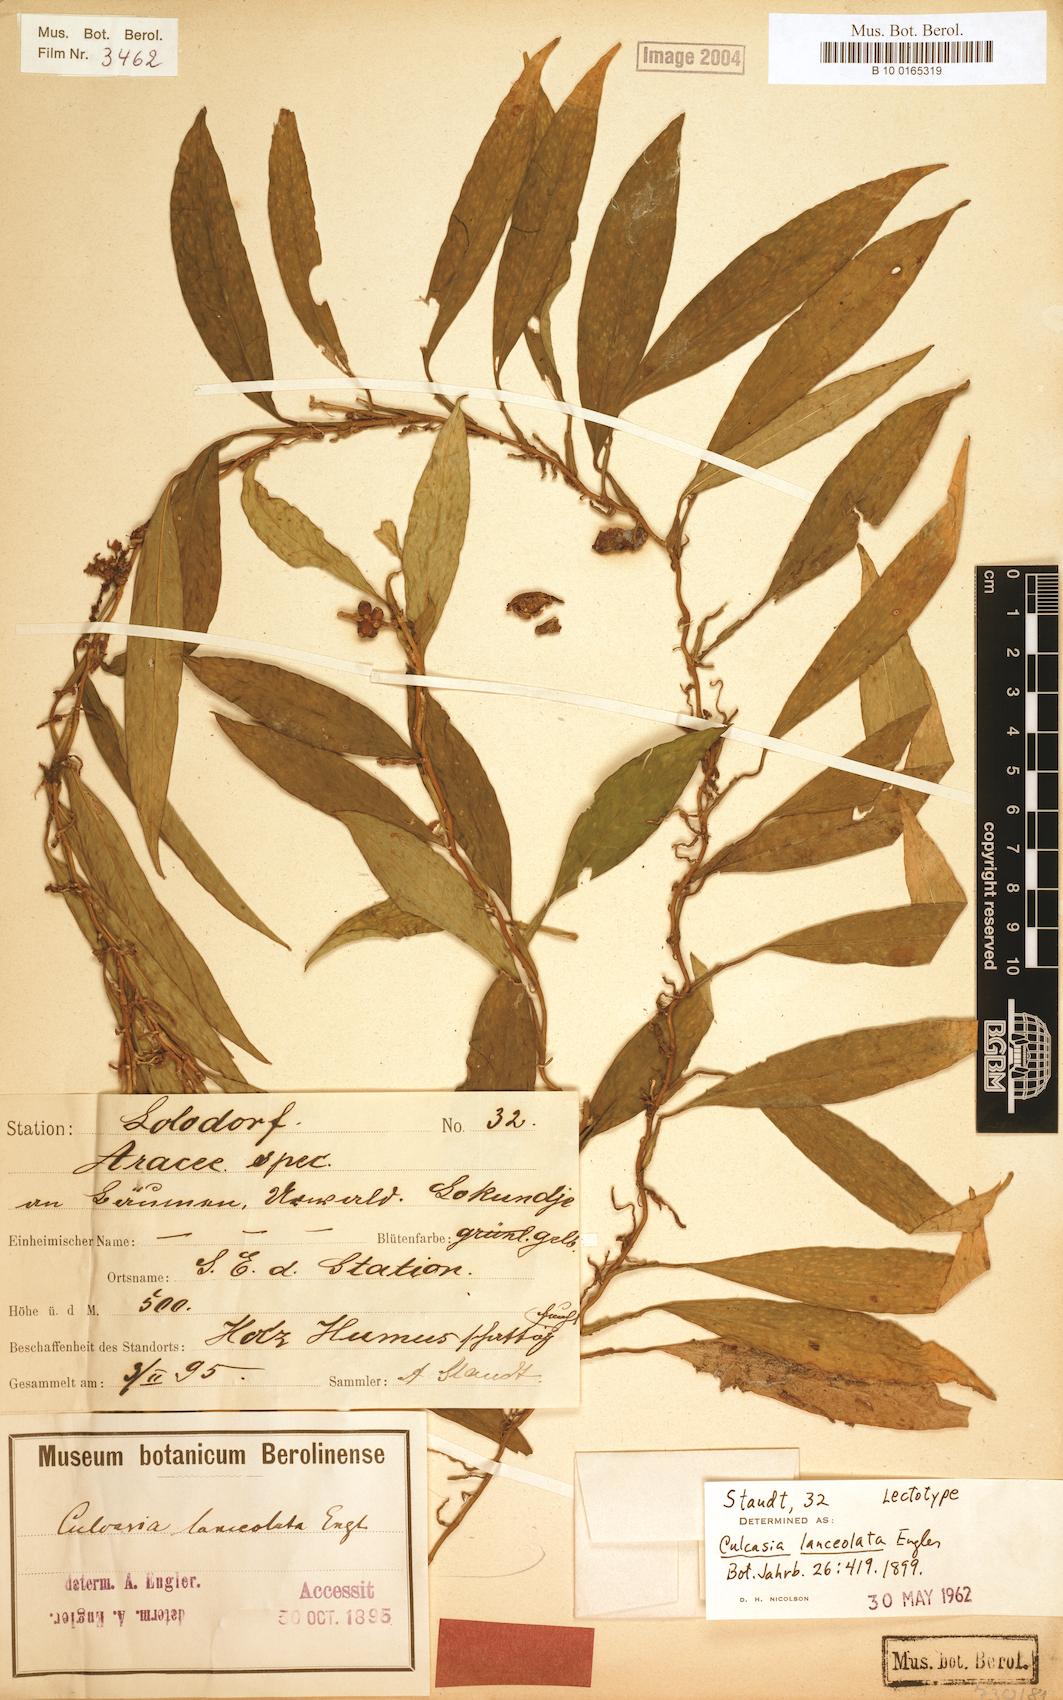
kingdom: Plantae
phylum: Tracheophyta
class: Liliopsida
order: Alismatales
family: Araceae
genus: Culcasia
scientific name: Culcasia lanceolata
